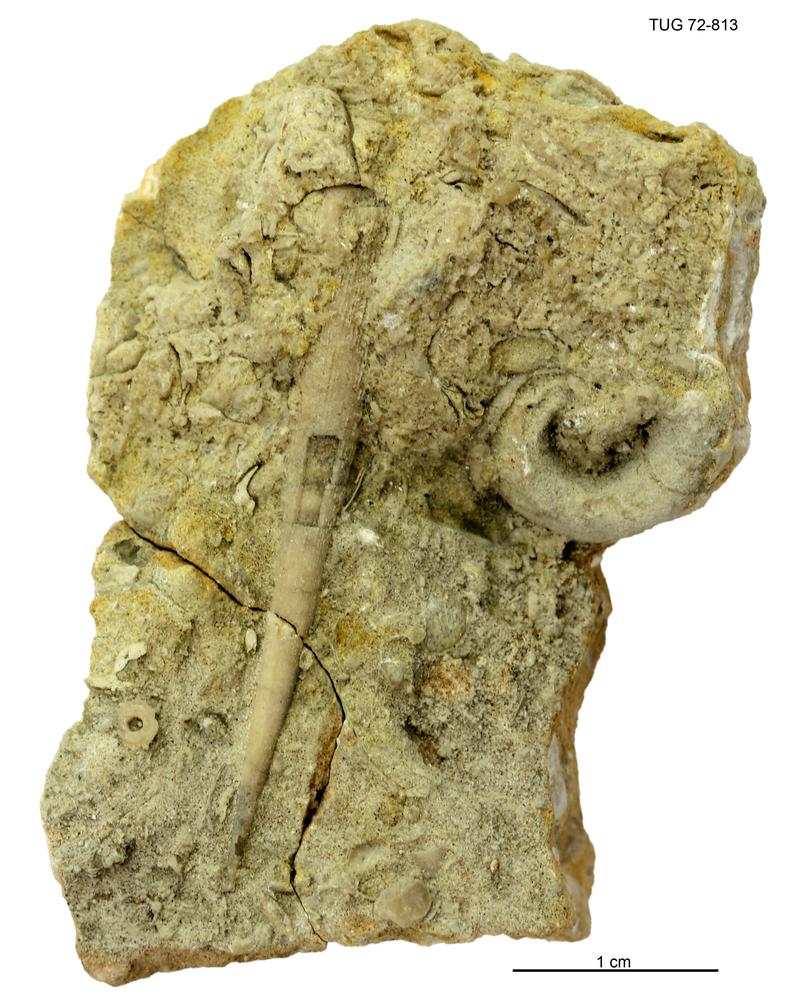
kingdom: Animalia
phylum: Mollusca
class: Cephalopoda
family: Estonioceratidae
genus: Estonioceras
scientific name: Estonioceras
